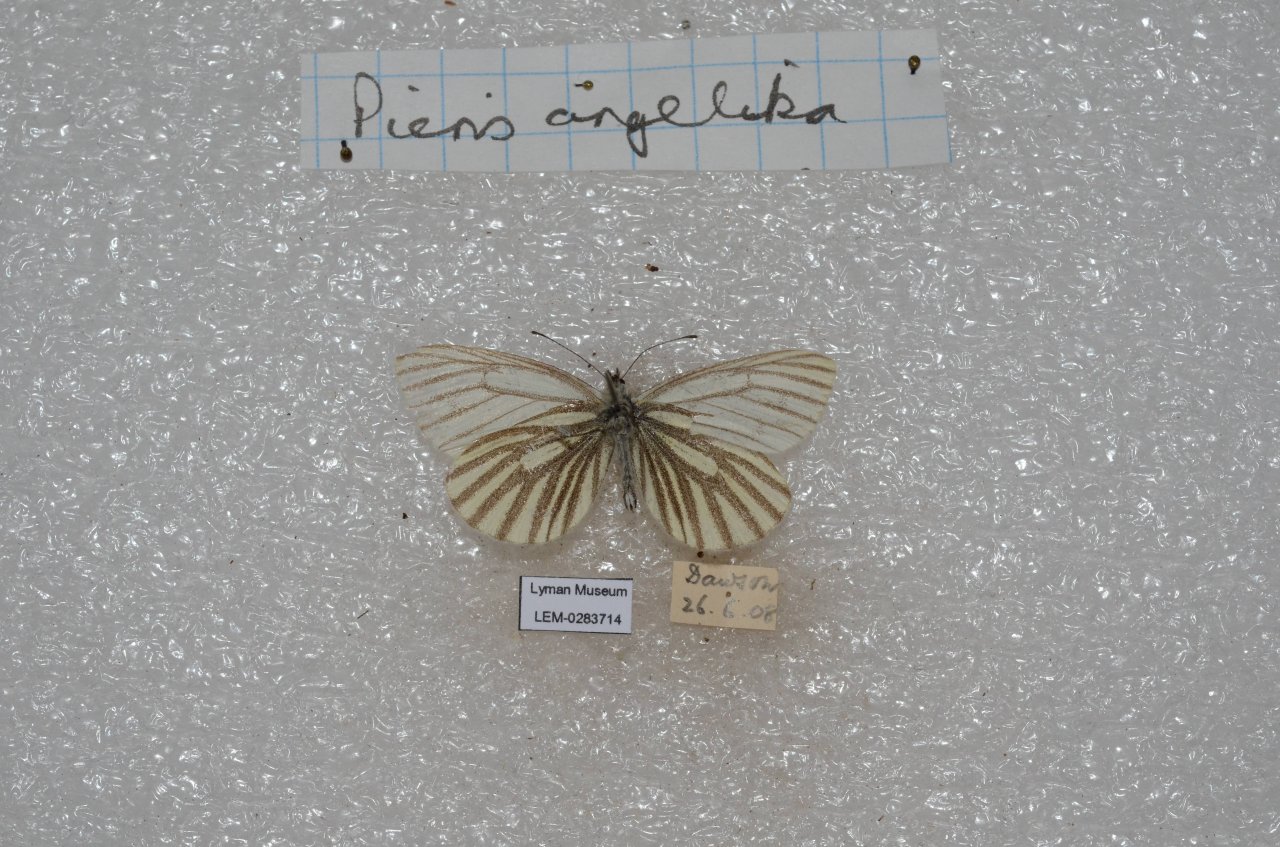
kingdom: Animalia
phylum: Arthropoda
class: Insecta
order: Lepidoptera
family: Pieridae
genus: Pieris
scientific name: Pieris angelika
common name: Arctic White
